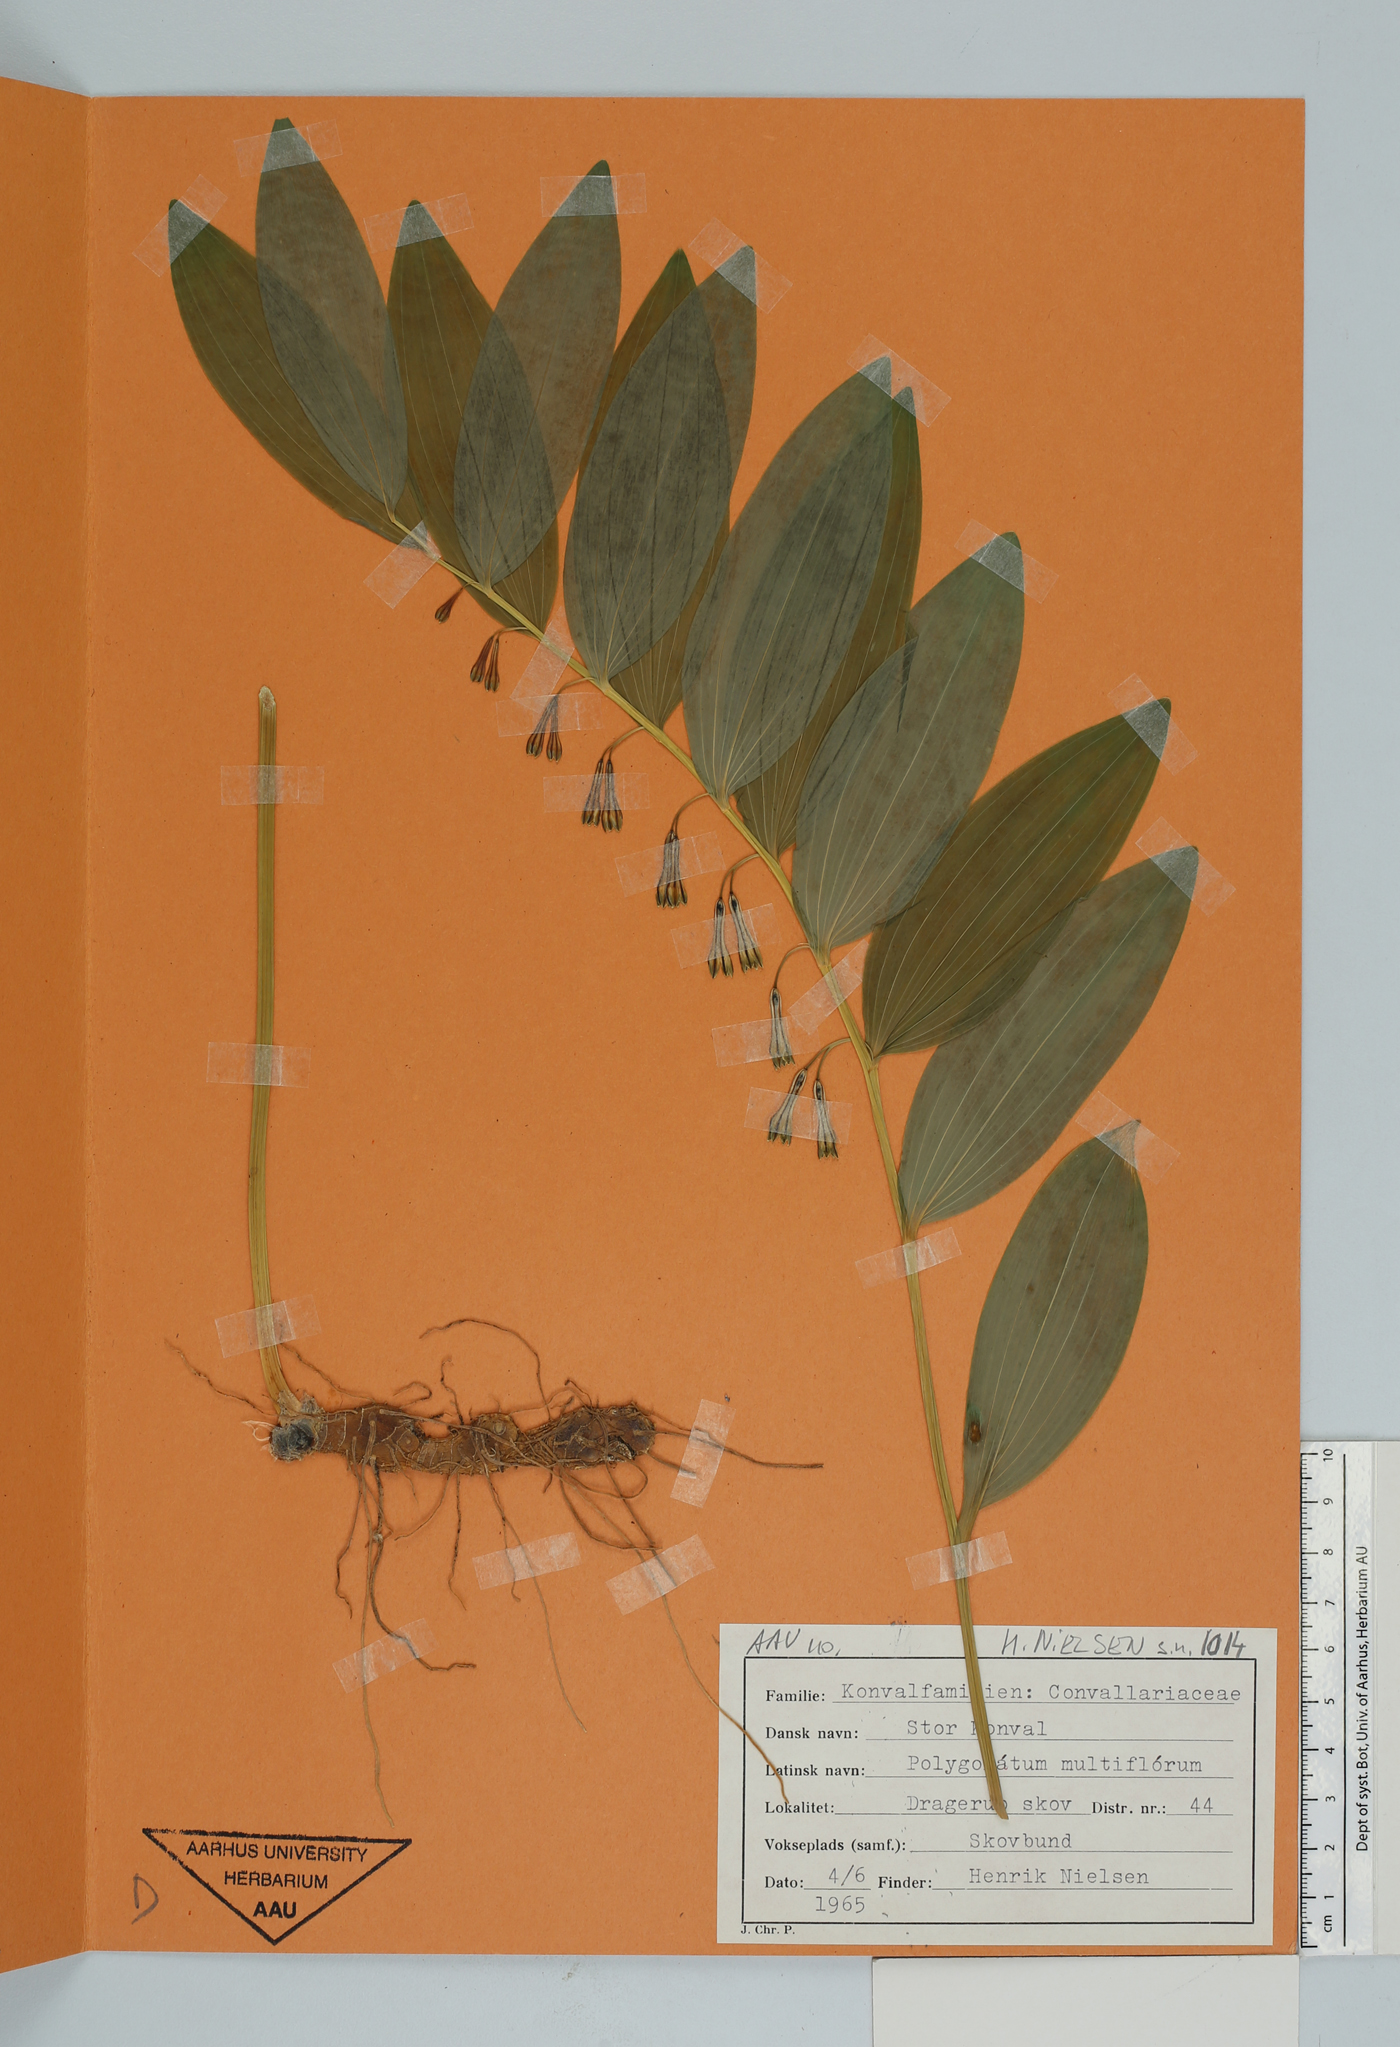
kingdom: Plantae
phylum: Tracheophyta
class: Liliopsida
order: Asparagales
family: Asparagaceae
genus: Polygonatum
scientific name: Polygonatum multiflorum
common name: Solomon's-seal
